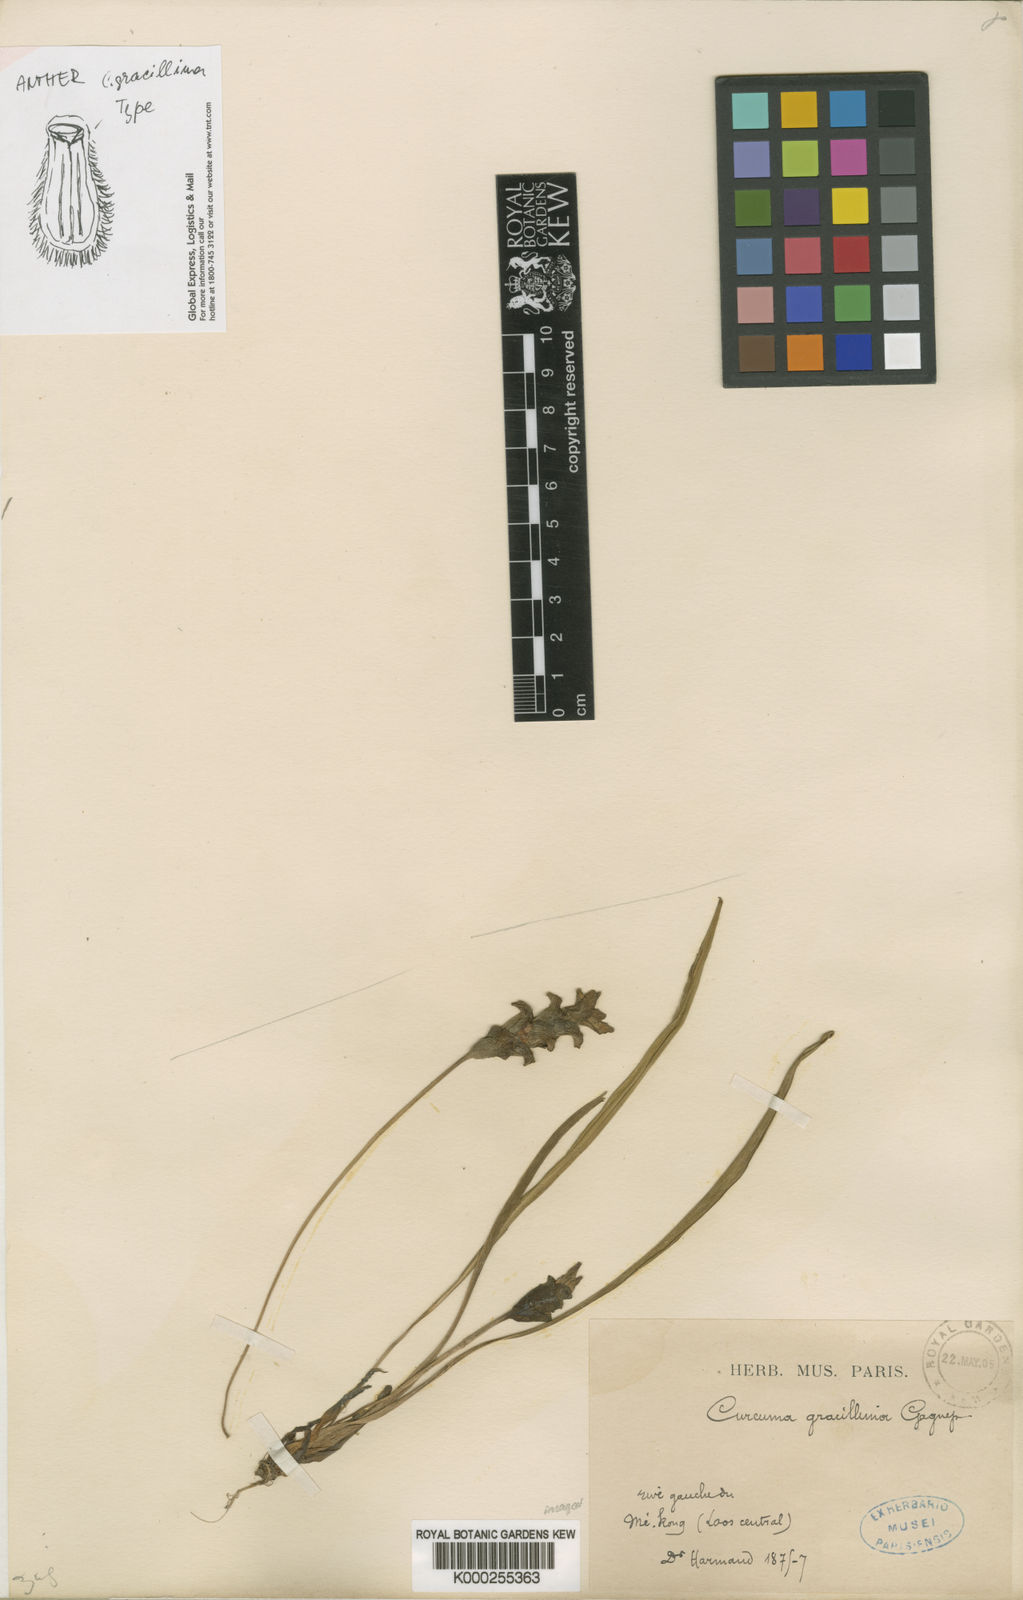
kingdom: Plantae
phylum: Tracheophyta
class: Liliopsida
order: Zingiberales
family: Zingiberaceae
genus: Curcuma
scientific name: Curcuma gracillima
